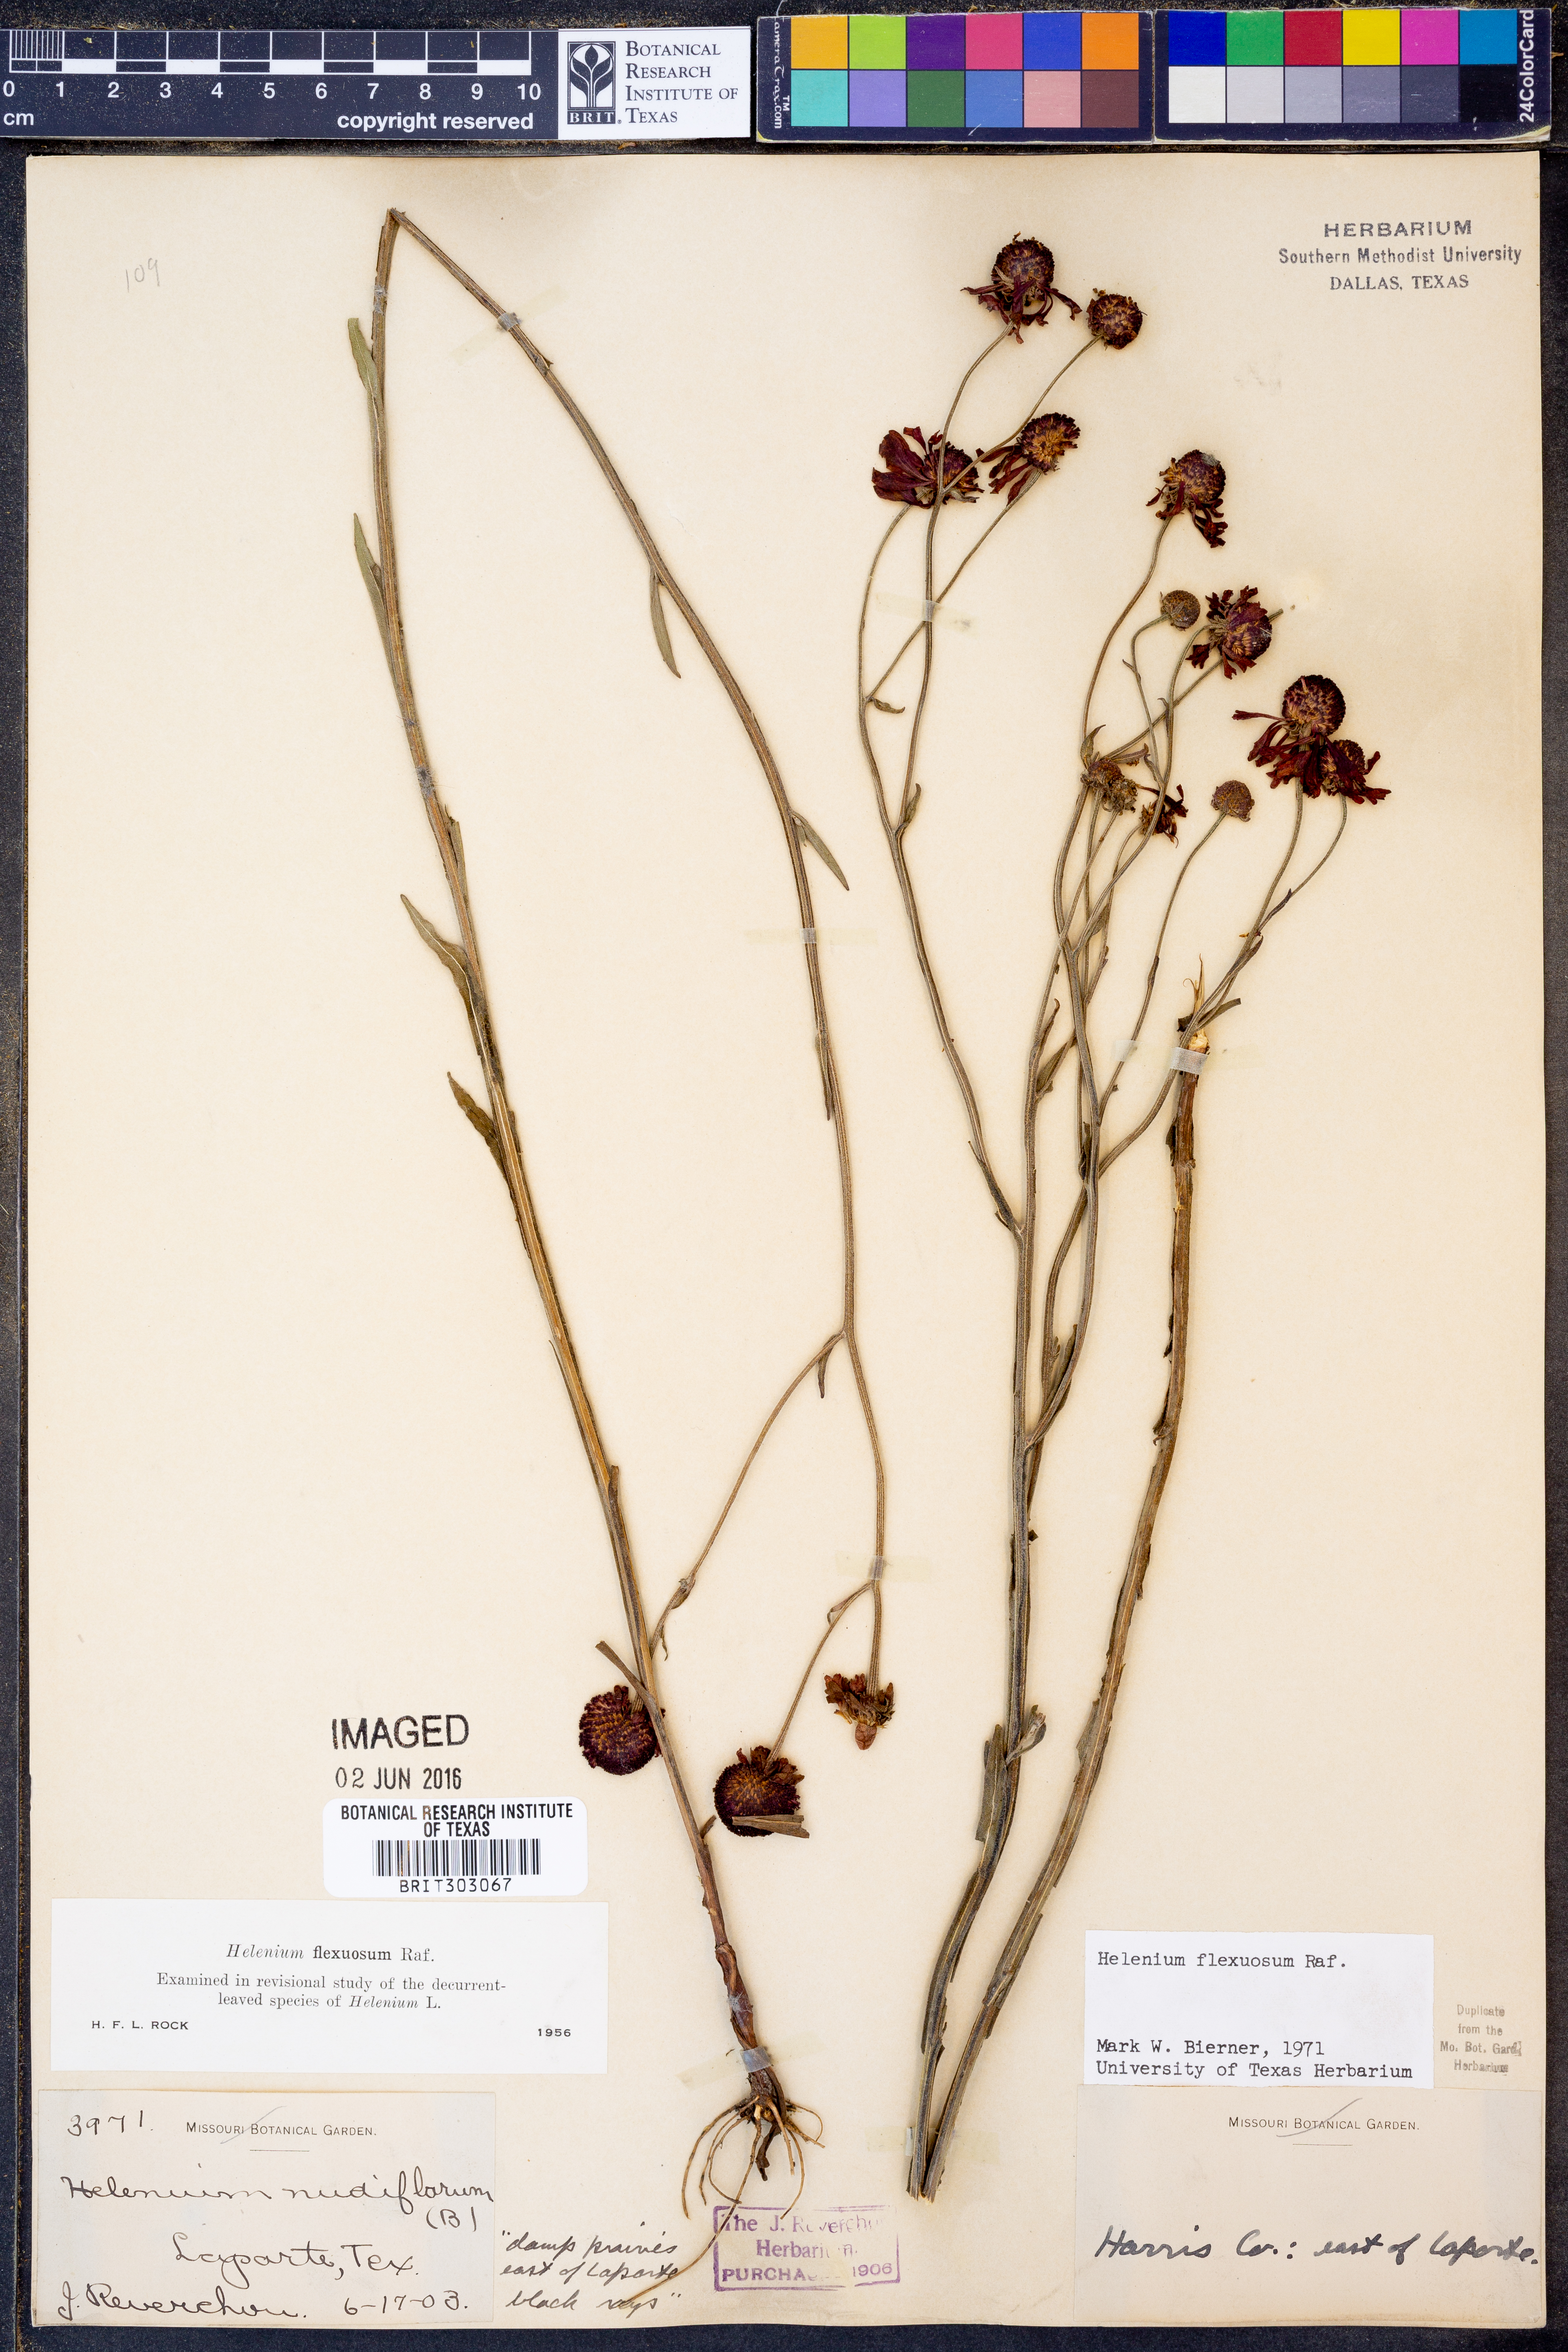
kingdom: Plantae
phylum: Tracheophyta
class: Magnoliopsida
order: Asterales
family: Asteraceae
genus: Helenium
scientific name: Helenium flexuosum
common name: Naked-flowered sneezeweed
